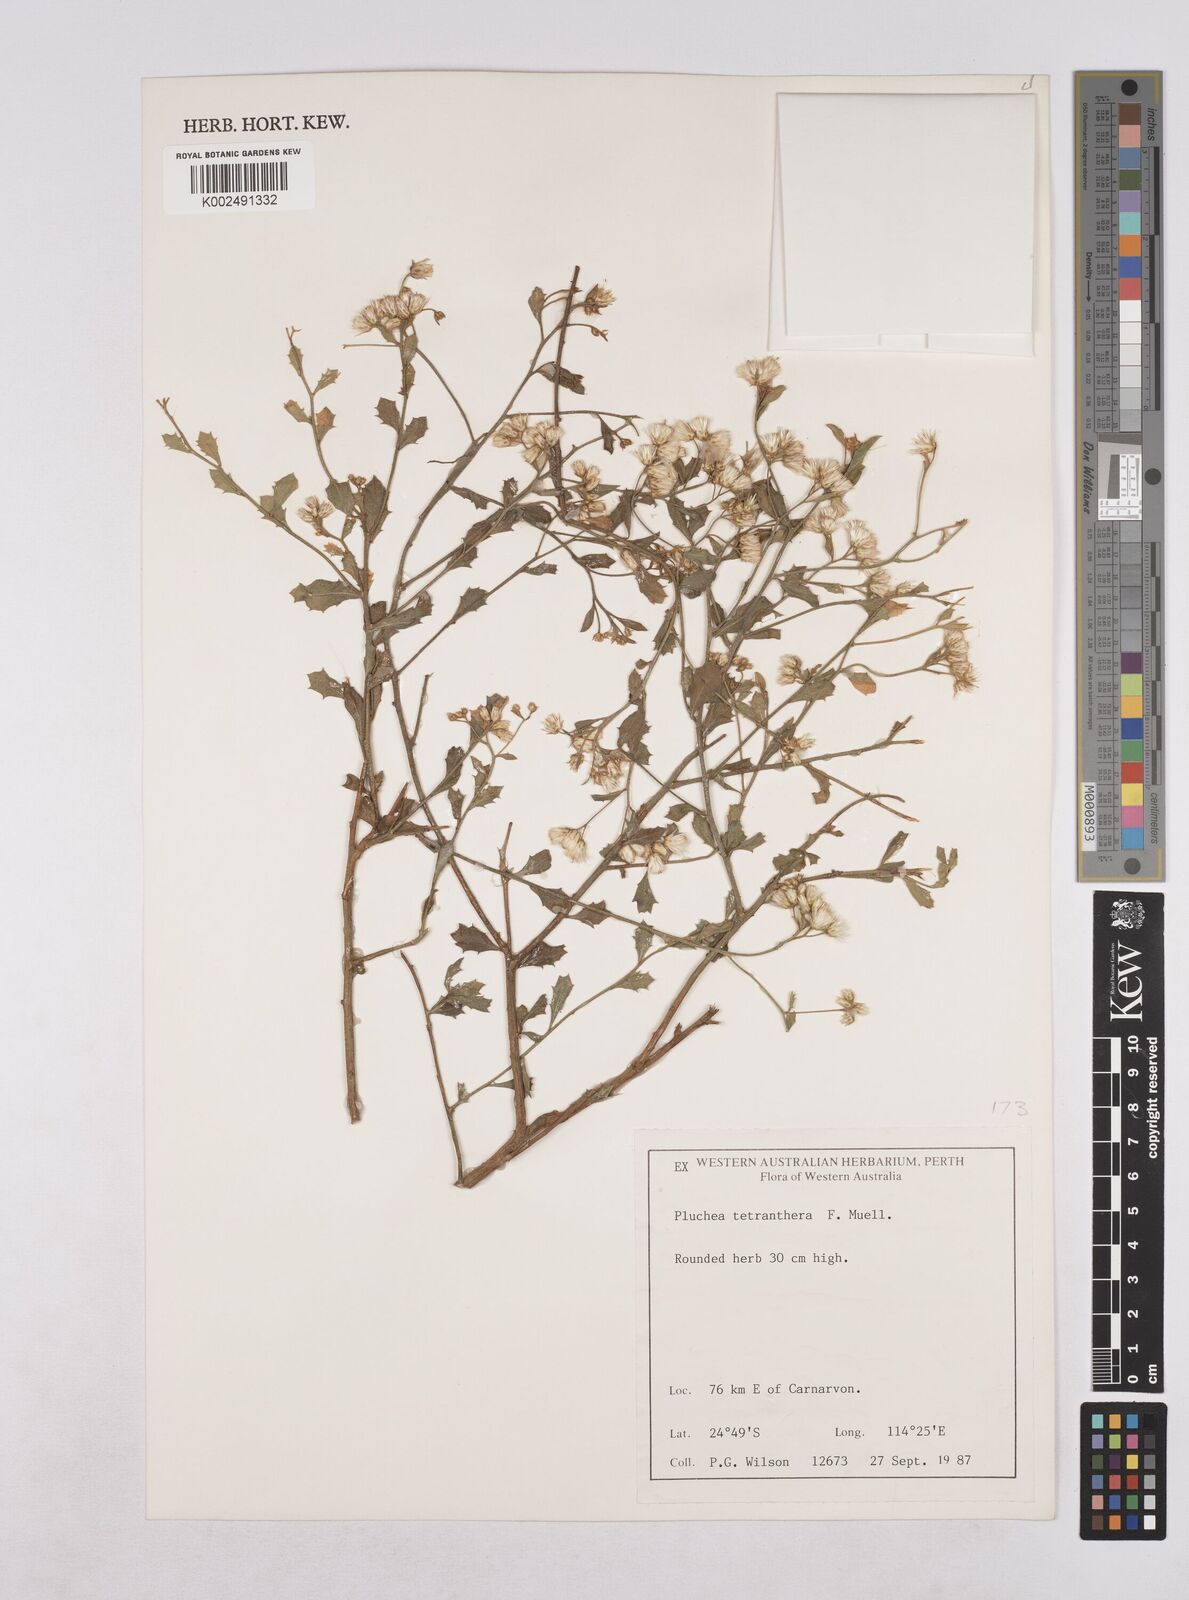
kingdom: Plantae
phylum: Tracheophyta
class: Magnoliopsida
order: Asterales
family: Asteraceae
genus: Pluchea
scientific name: Pluchea dunlopii
